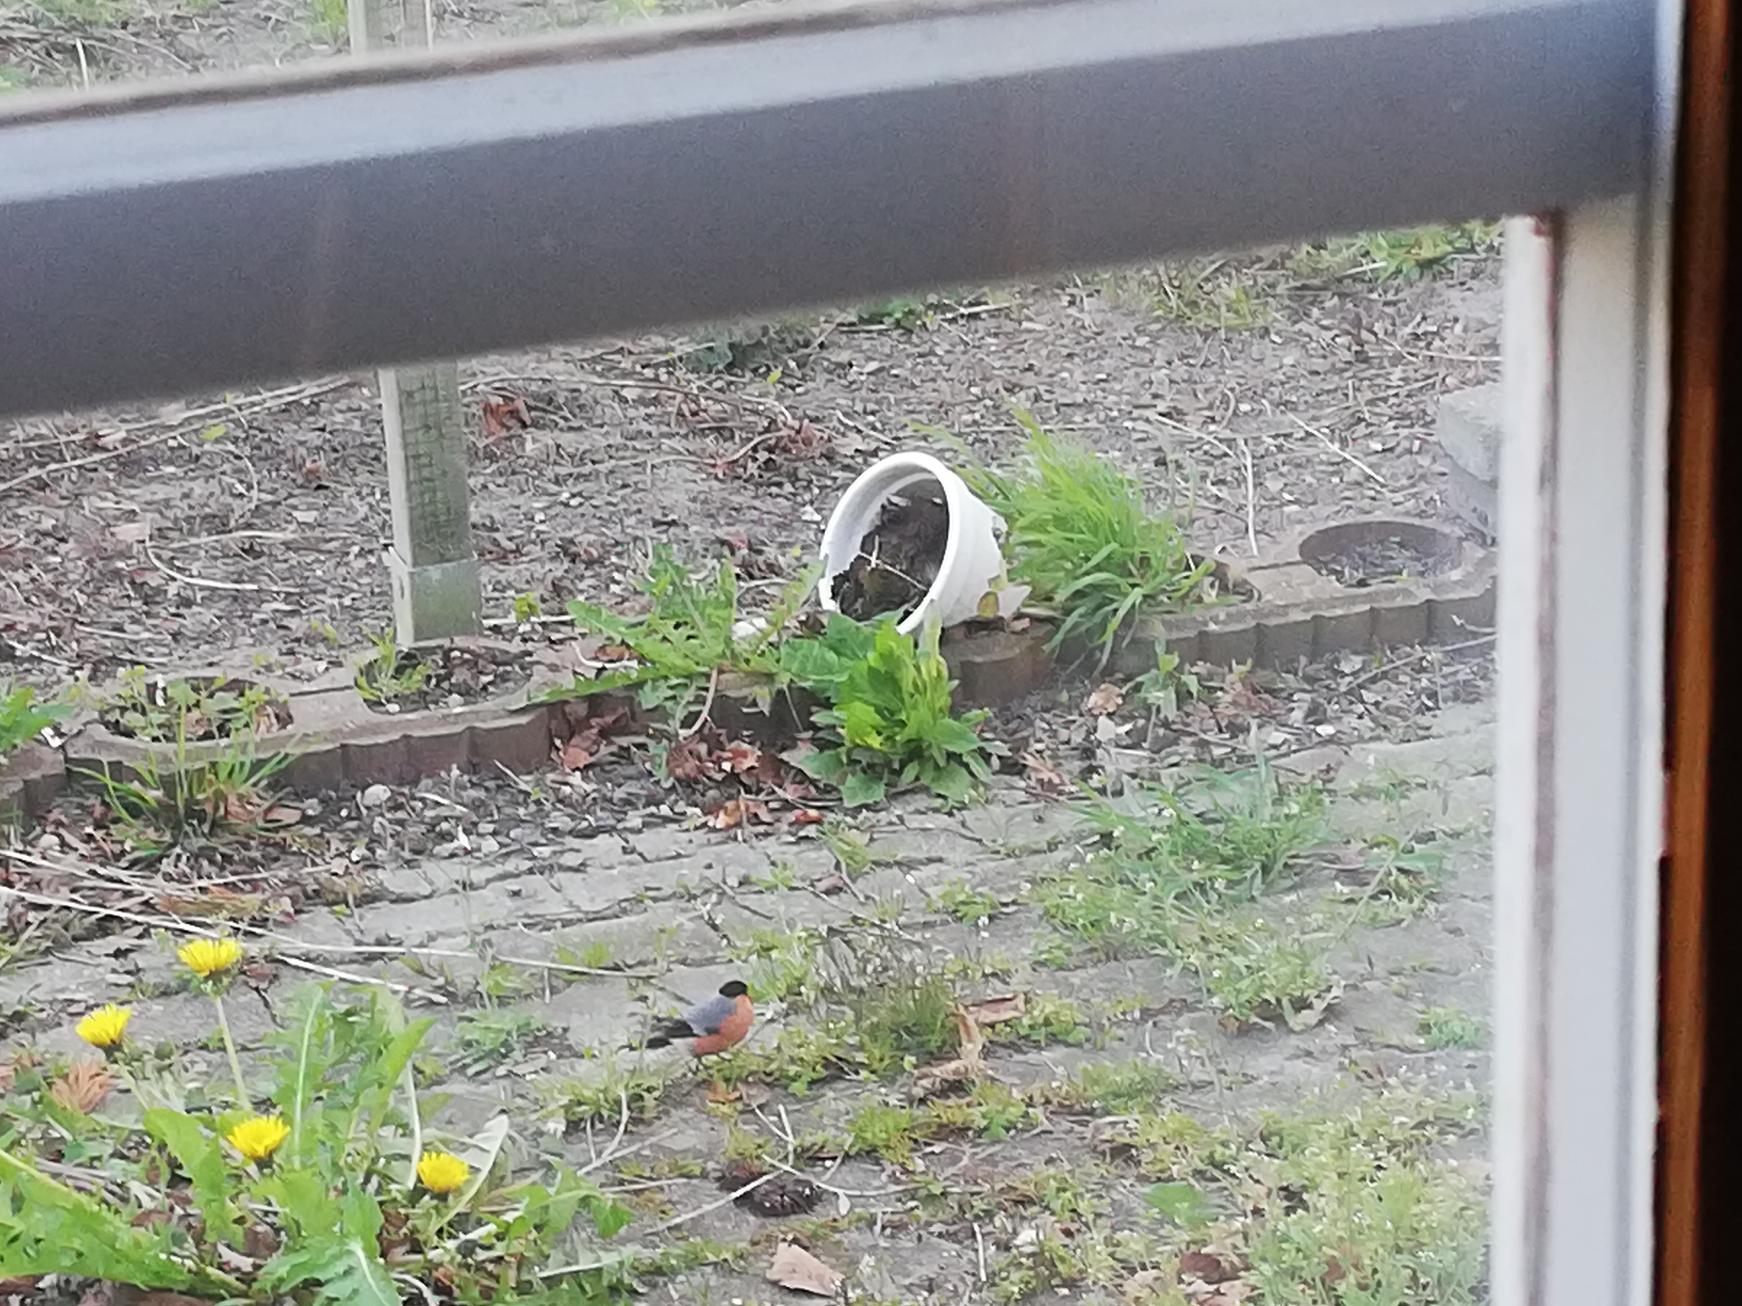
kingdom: Animalia
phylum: Chordata
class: Aves
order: Passeriformes
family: Fringillidae
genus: Pyrrhula
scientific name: Pyrrhula pyrrhula
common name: Dompap
